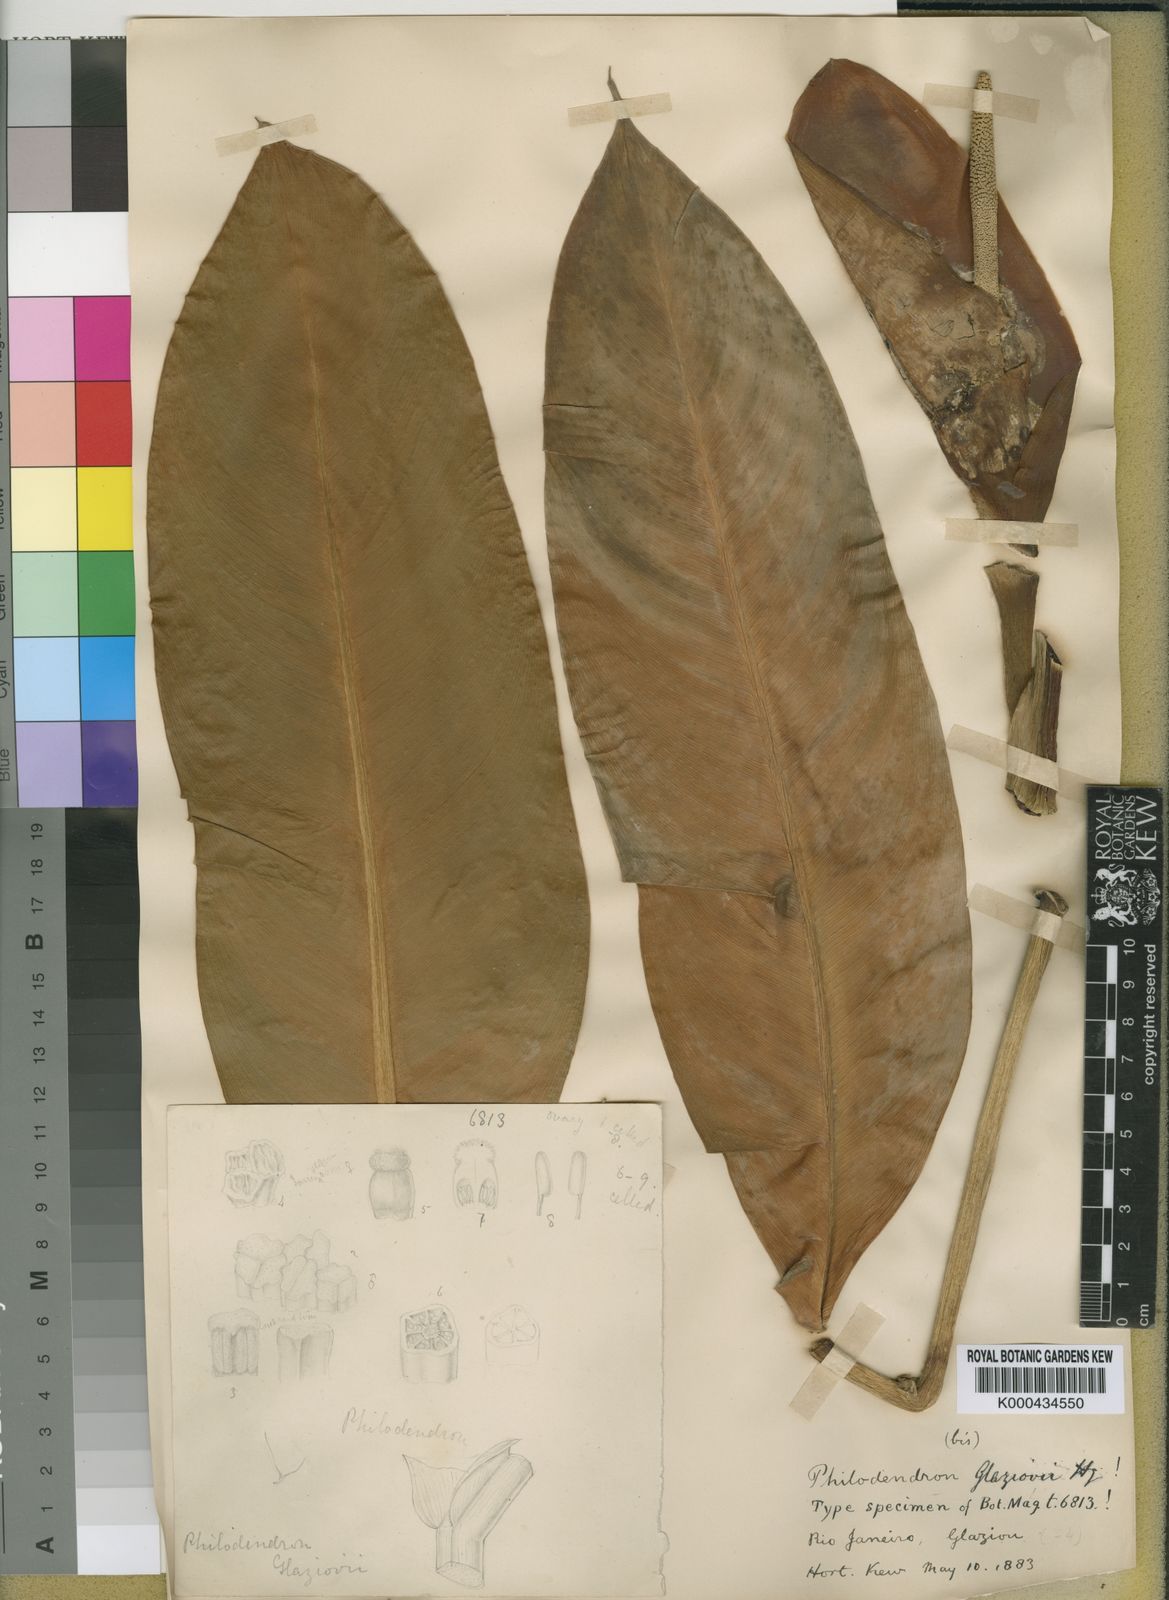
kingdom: Plantae
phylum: Tracheophyta
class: Liliopsida
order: Alismatales
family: Araceae
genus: Philodendron
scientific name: Philodendron glaziovii
